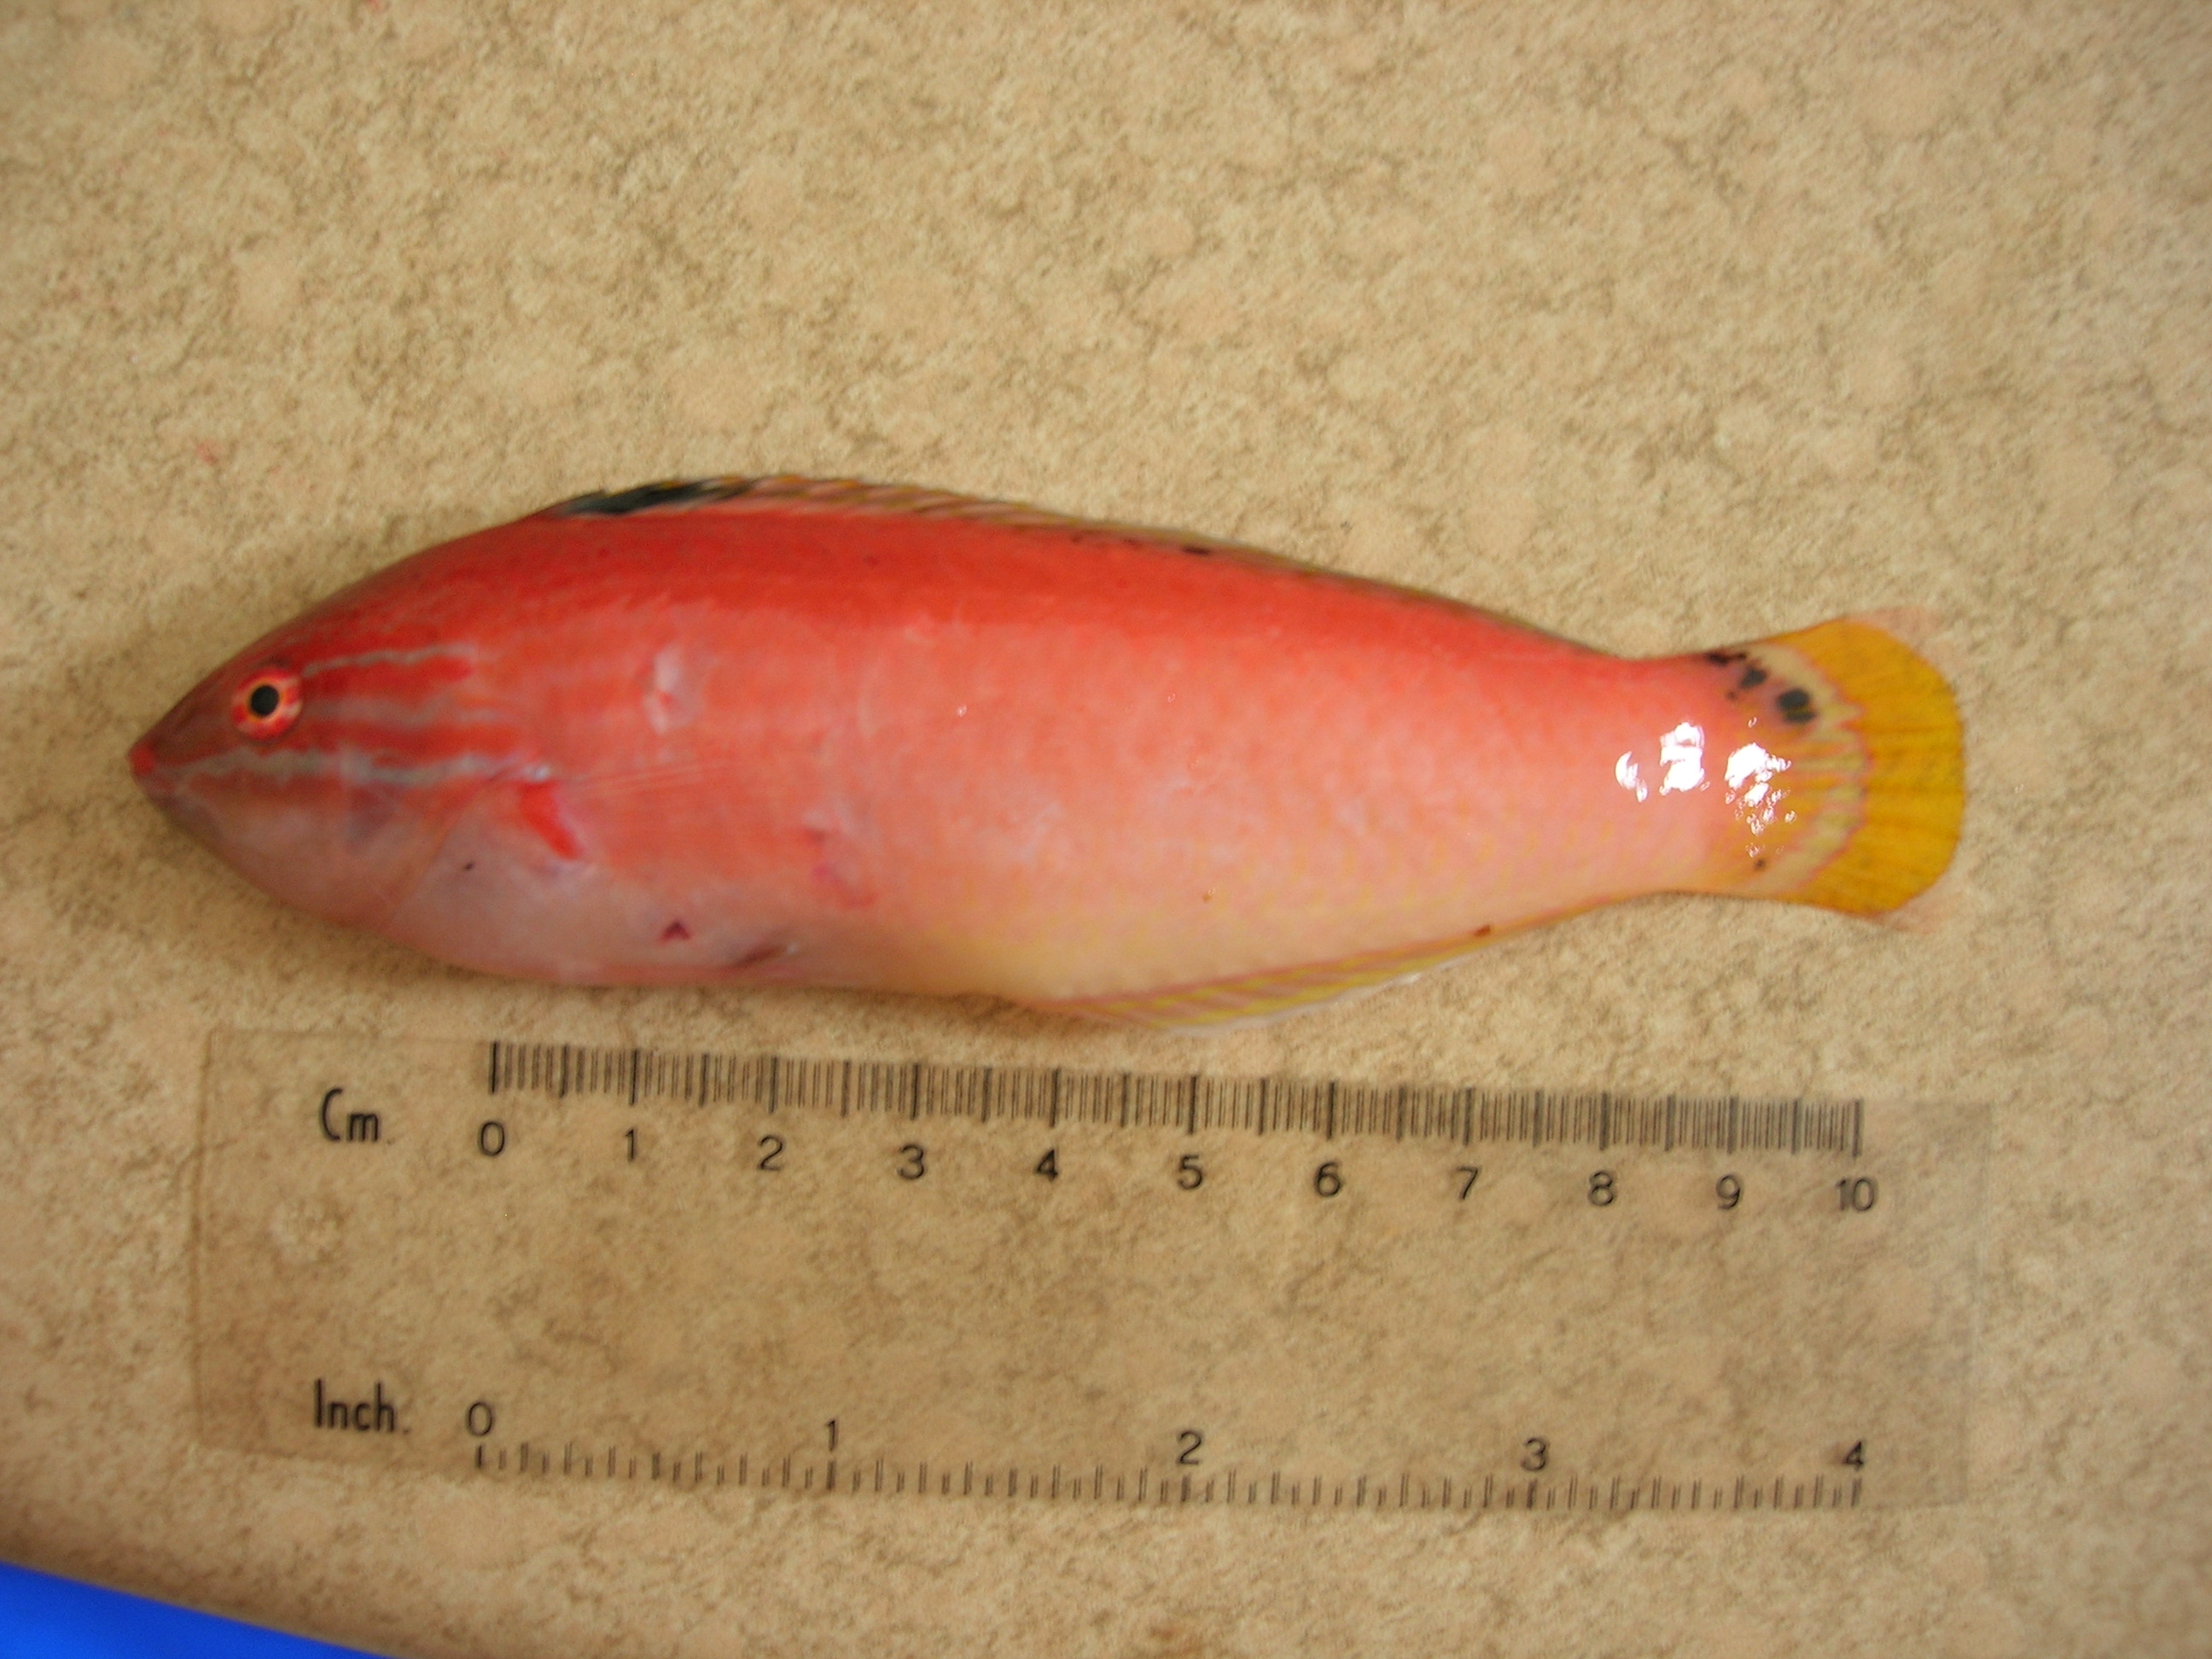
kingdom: Animalia
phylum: Chordata
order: Perciformes
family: Labridae
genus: Halichoeres
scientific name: Halichoeres trispilus
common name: Threespot wrasse
